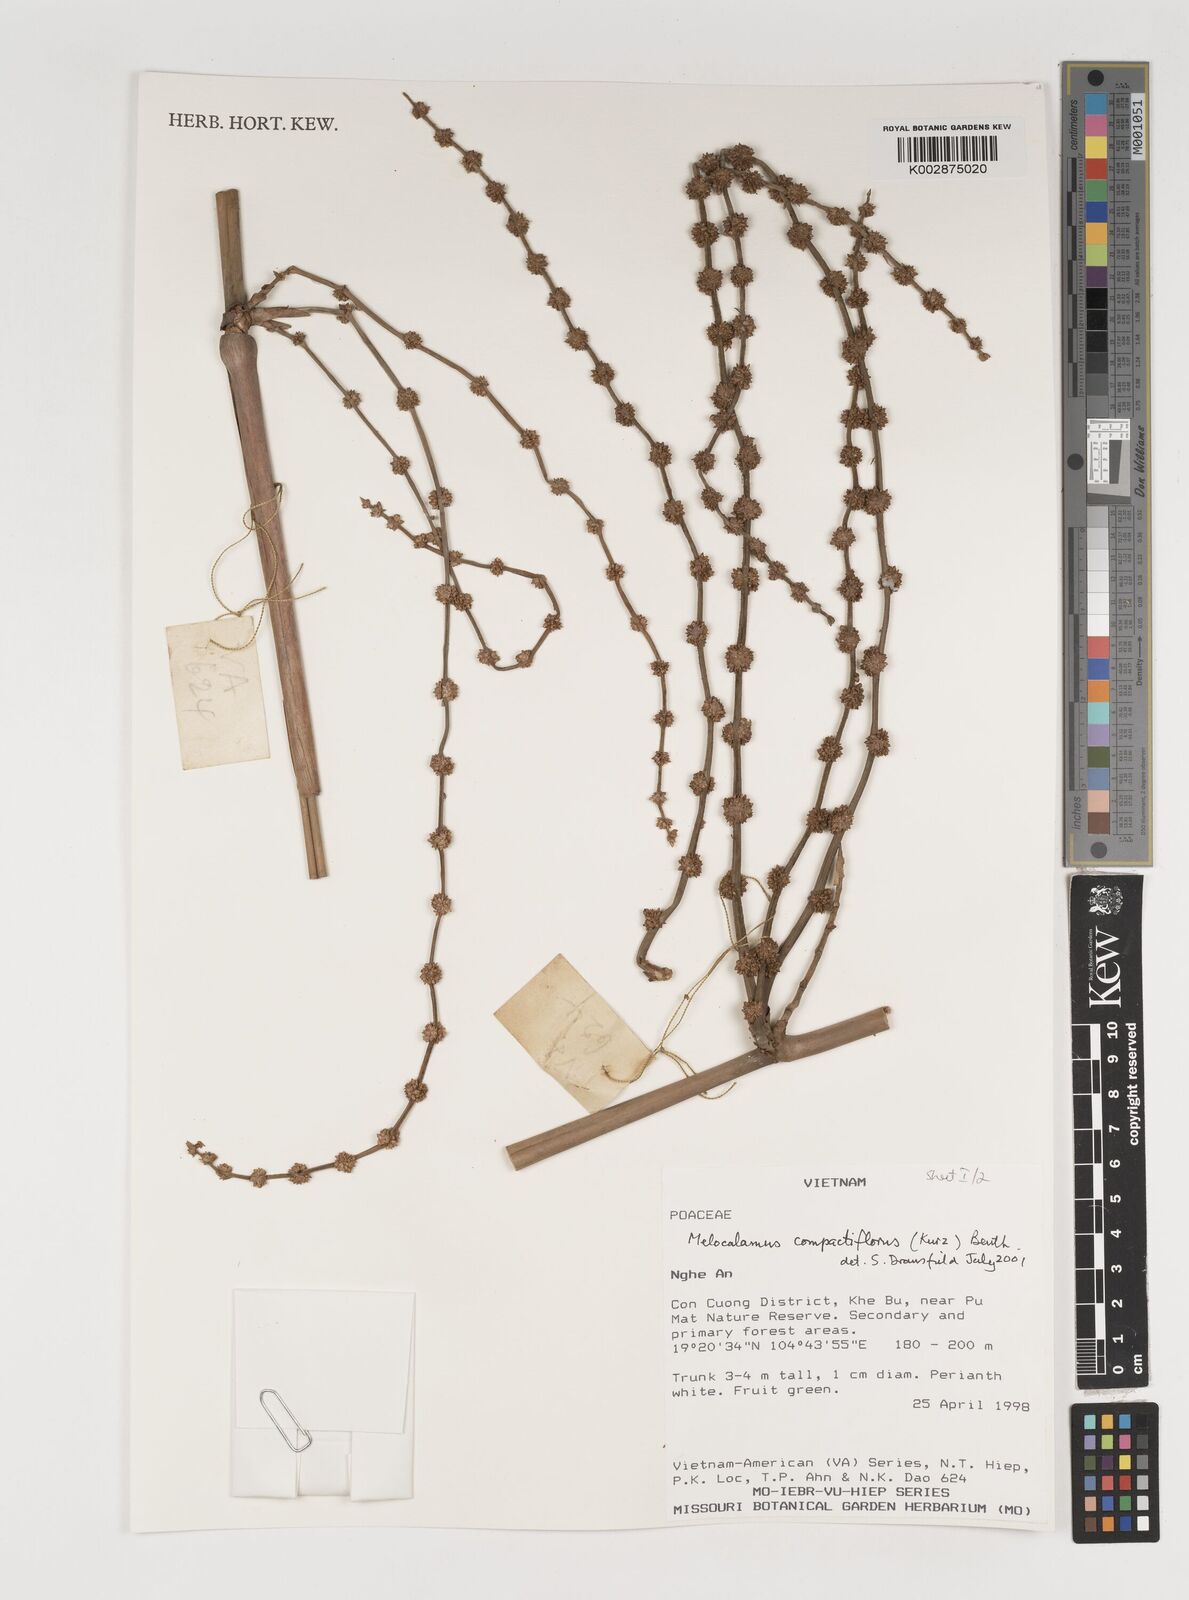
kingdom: Plantae
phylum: Tracheophyta
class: Liliopsida
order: Poales
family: Poaceae
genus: Melocalamus
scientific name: Melocalamus compactiflorus
